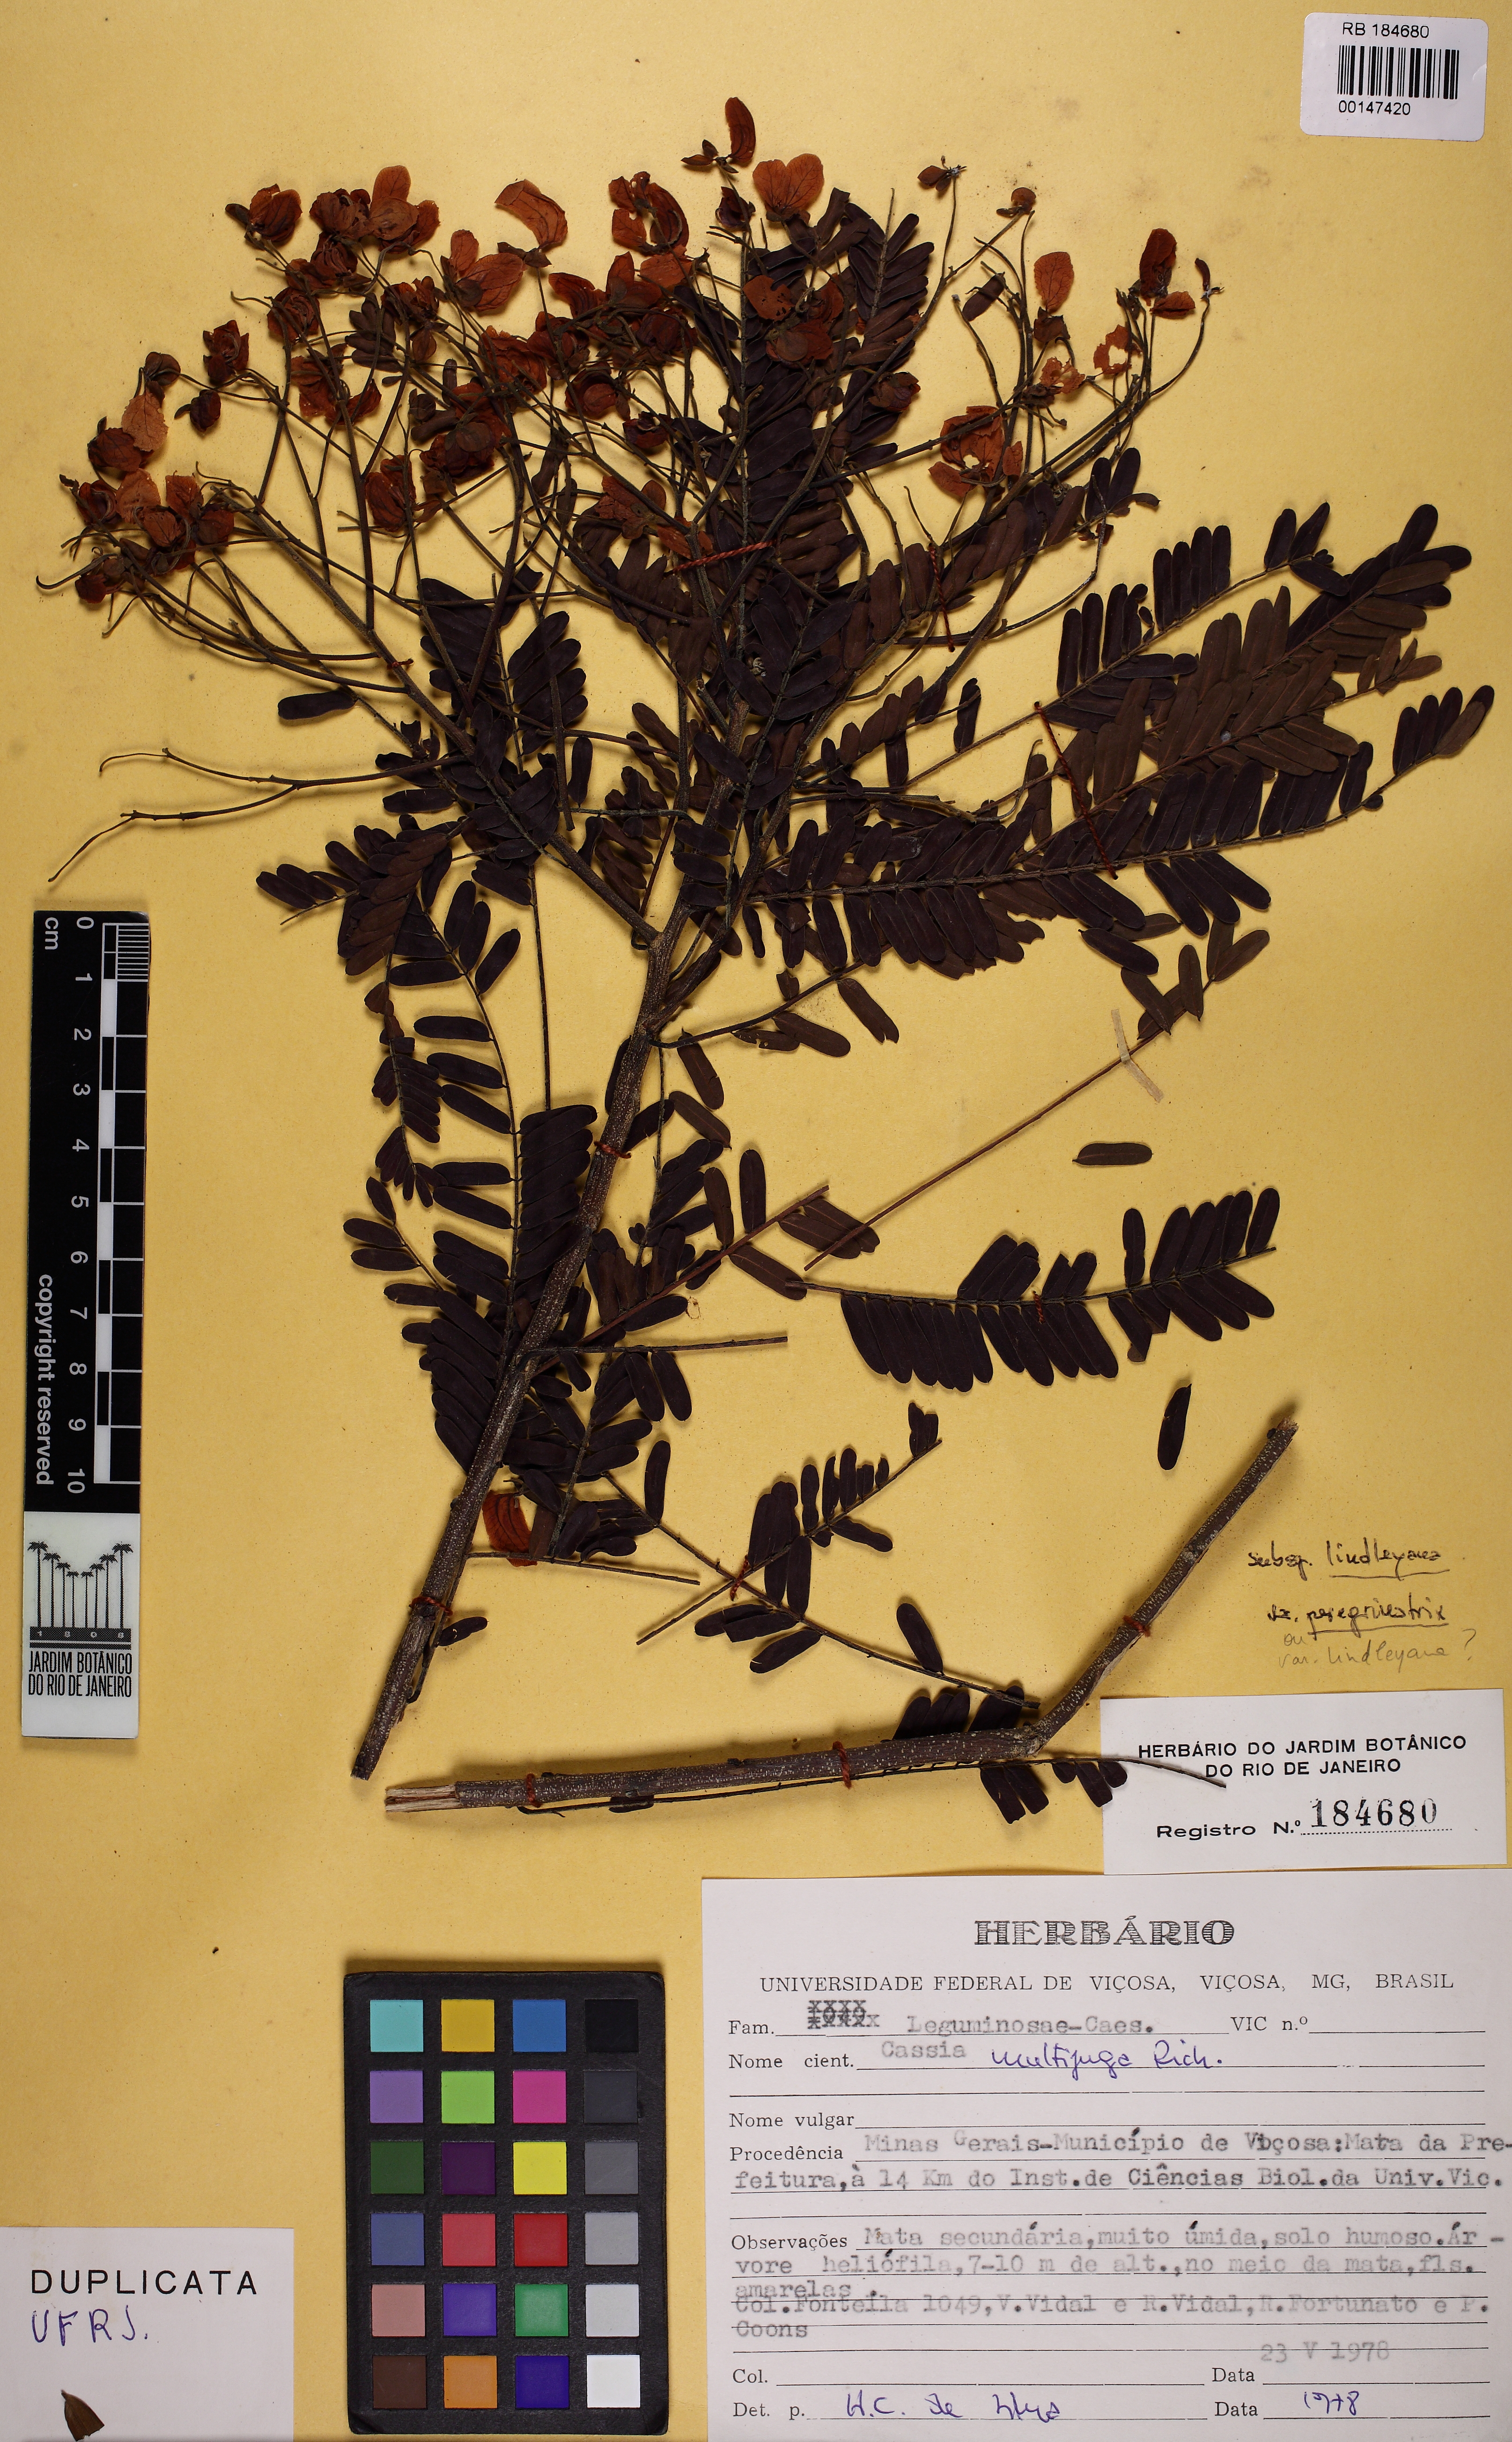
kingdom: Plantae
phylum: Tracheophyta
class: Magnoliopsida
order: Fabales
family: Fabaceae
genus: Senna
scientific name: Senna multijuga
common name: False sicklepod
